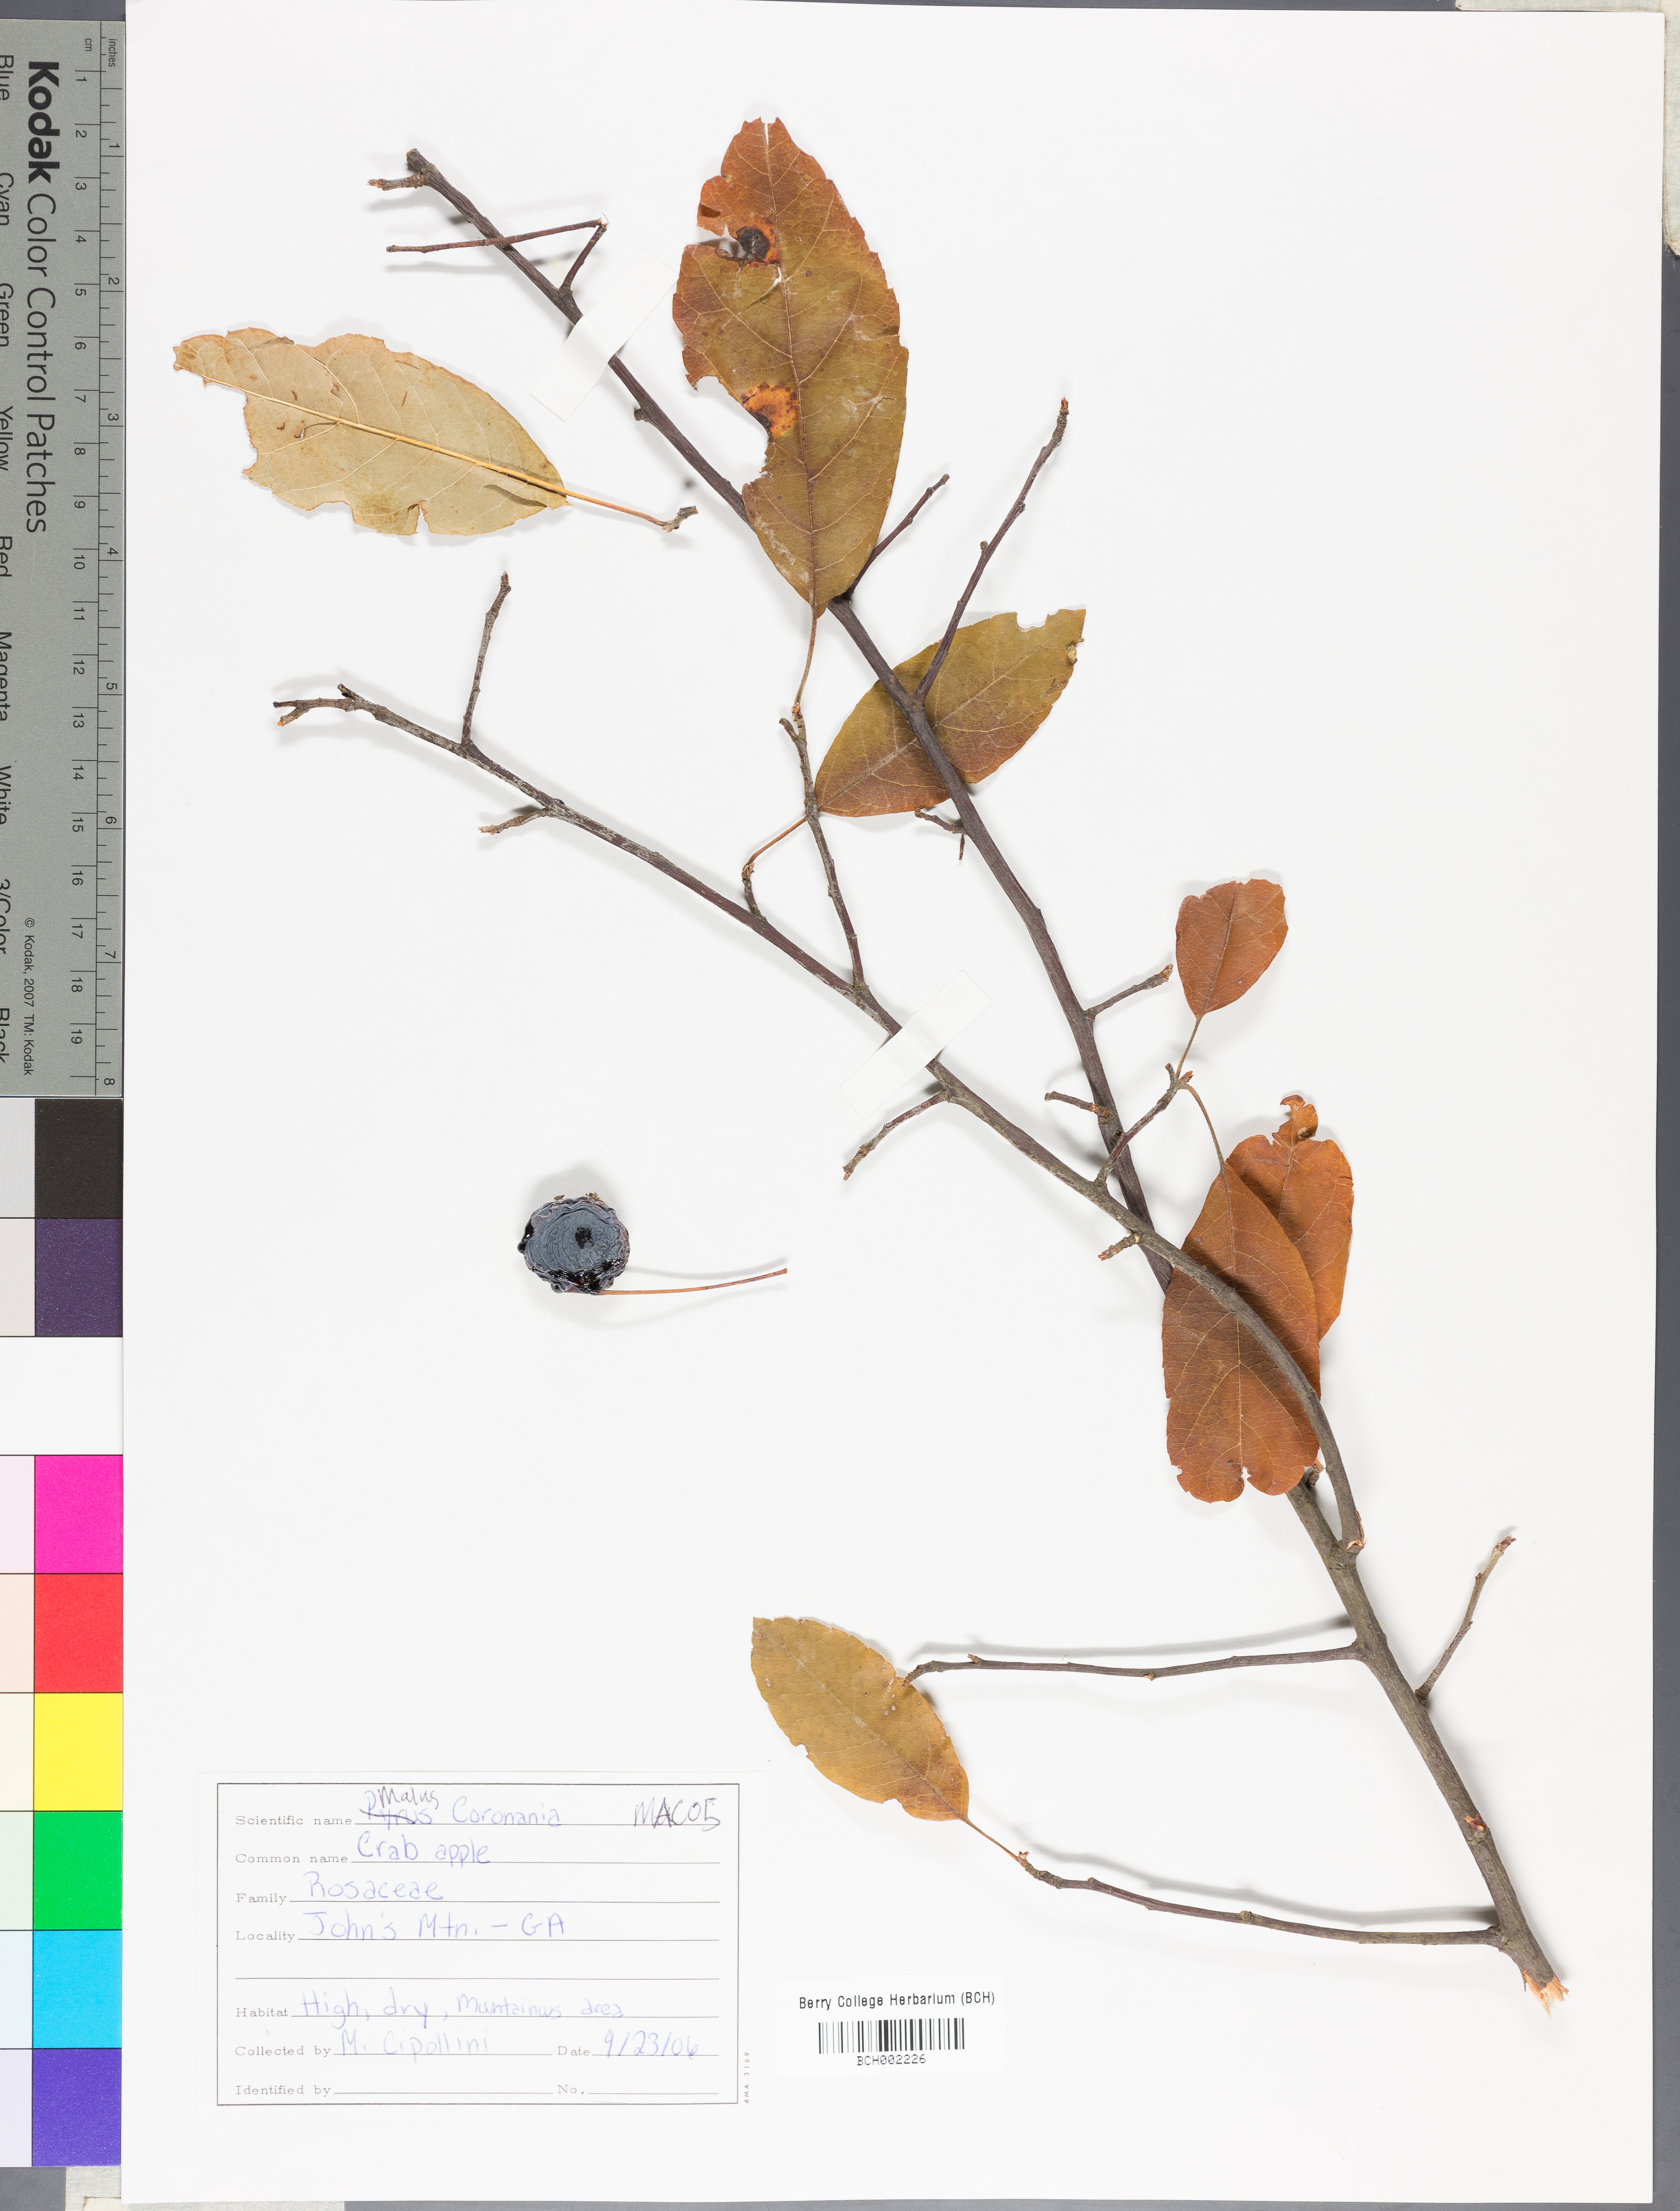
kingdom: Plantae
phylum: Tracheophyta
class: Magnoliopsida
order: Rosales
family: Rosaceae
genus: Malus
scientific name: Malus coronaria
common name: Sweet crab apple
